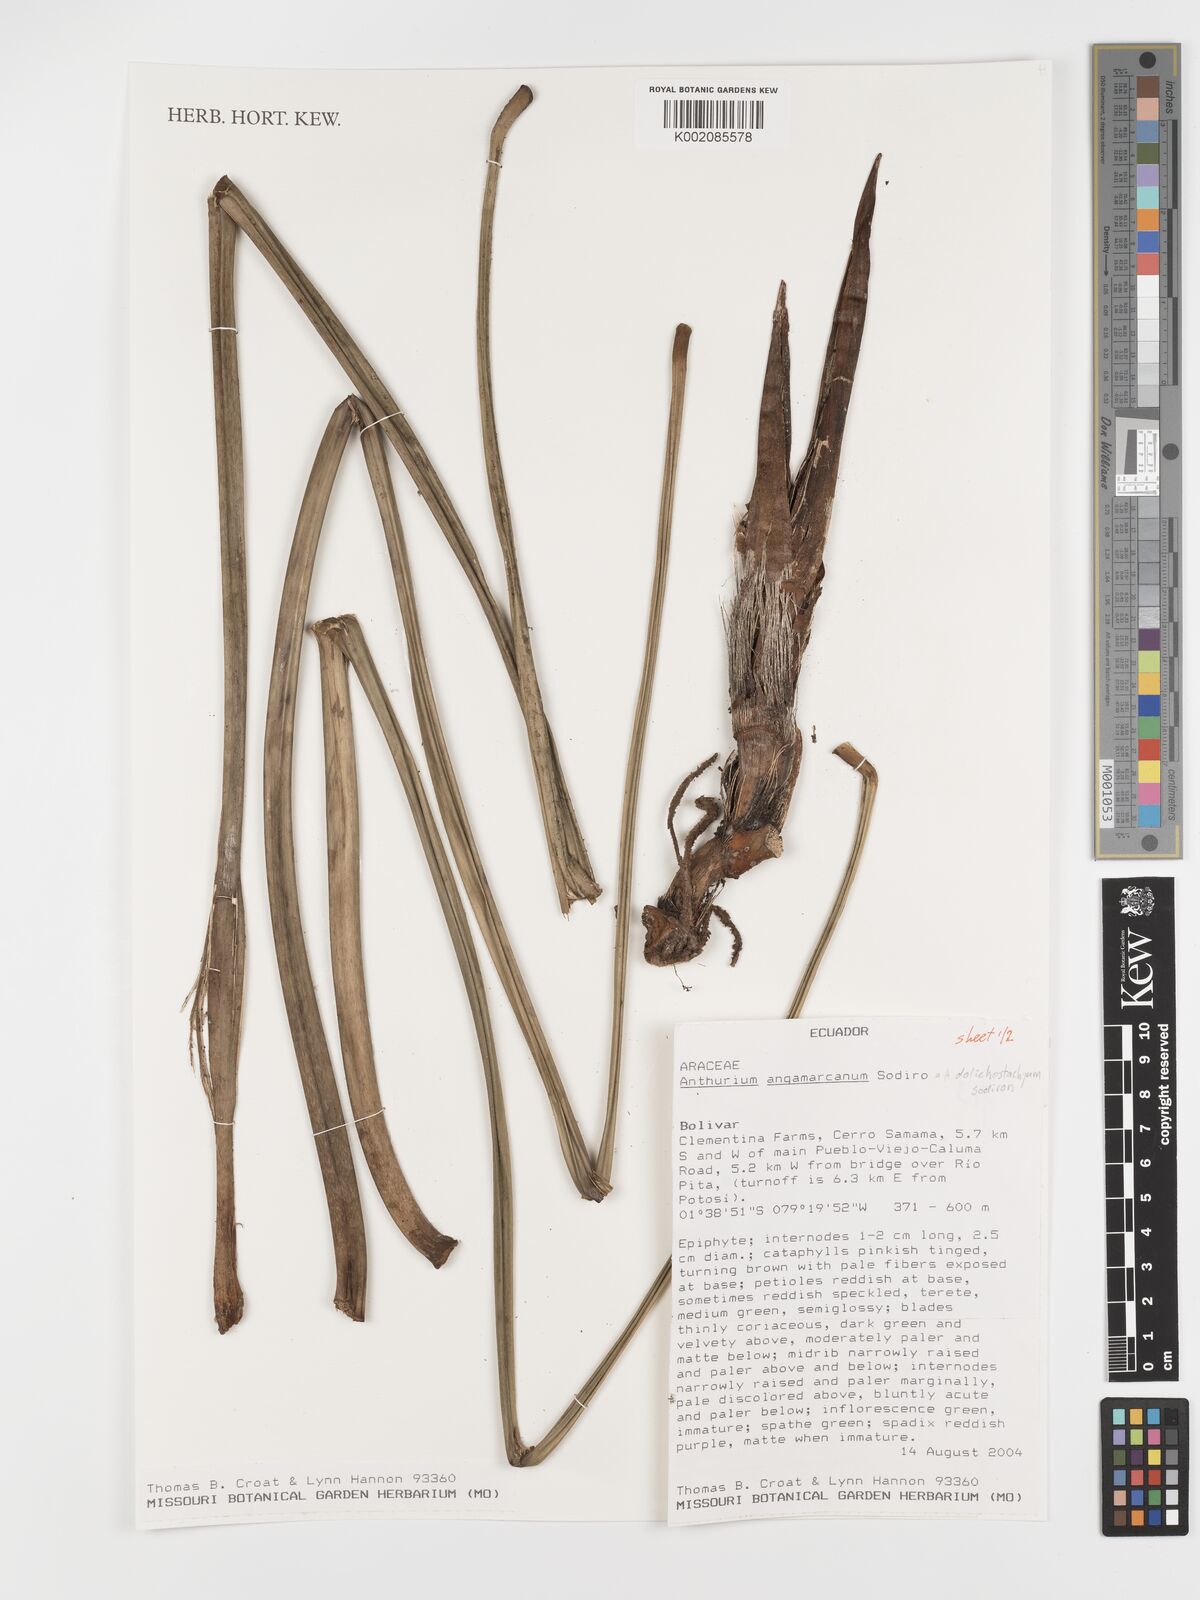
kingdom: Plantae
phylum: Tracheophyta
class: Liliopsida
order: Alismatales
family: Araceae
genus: Anthurium
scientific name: Anthurium dolichostachyum
